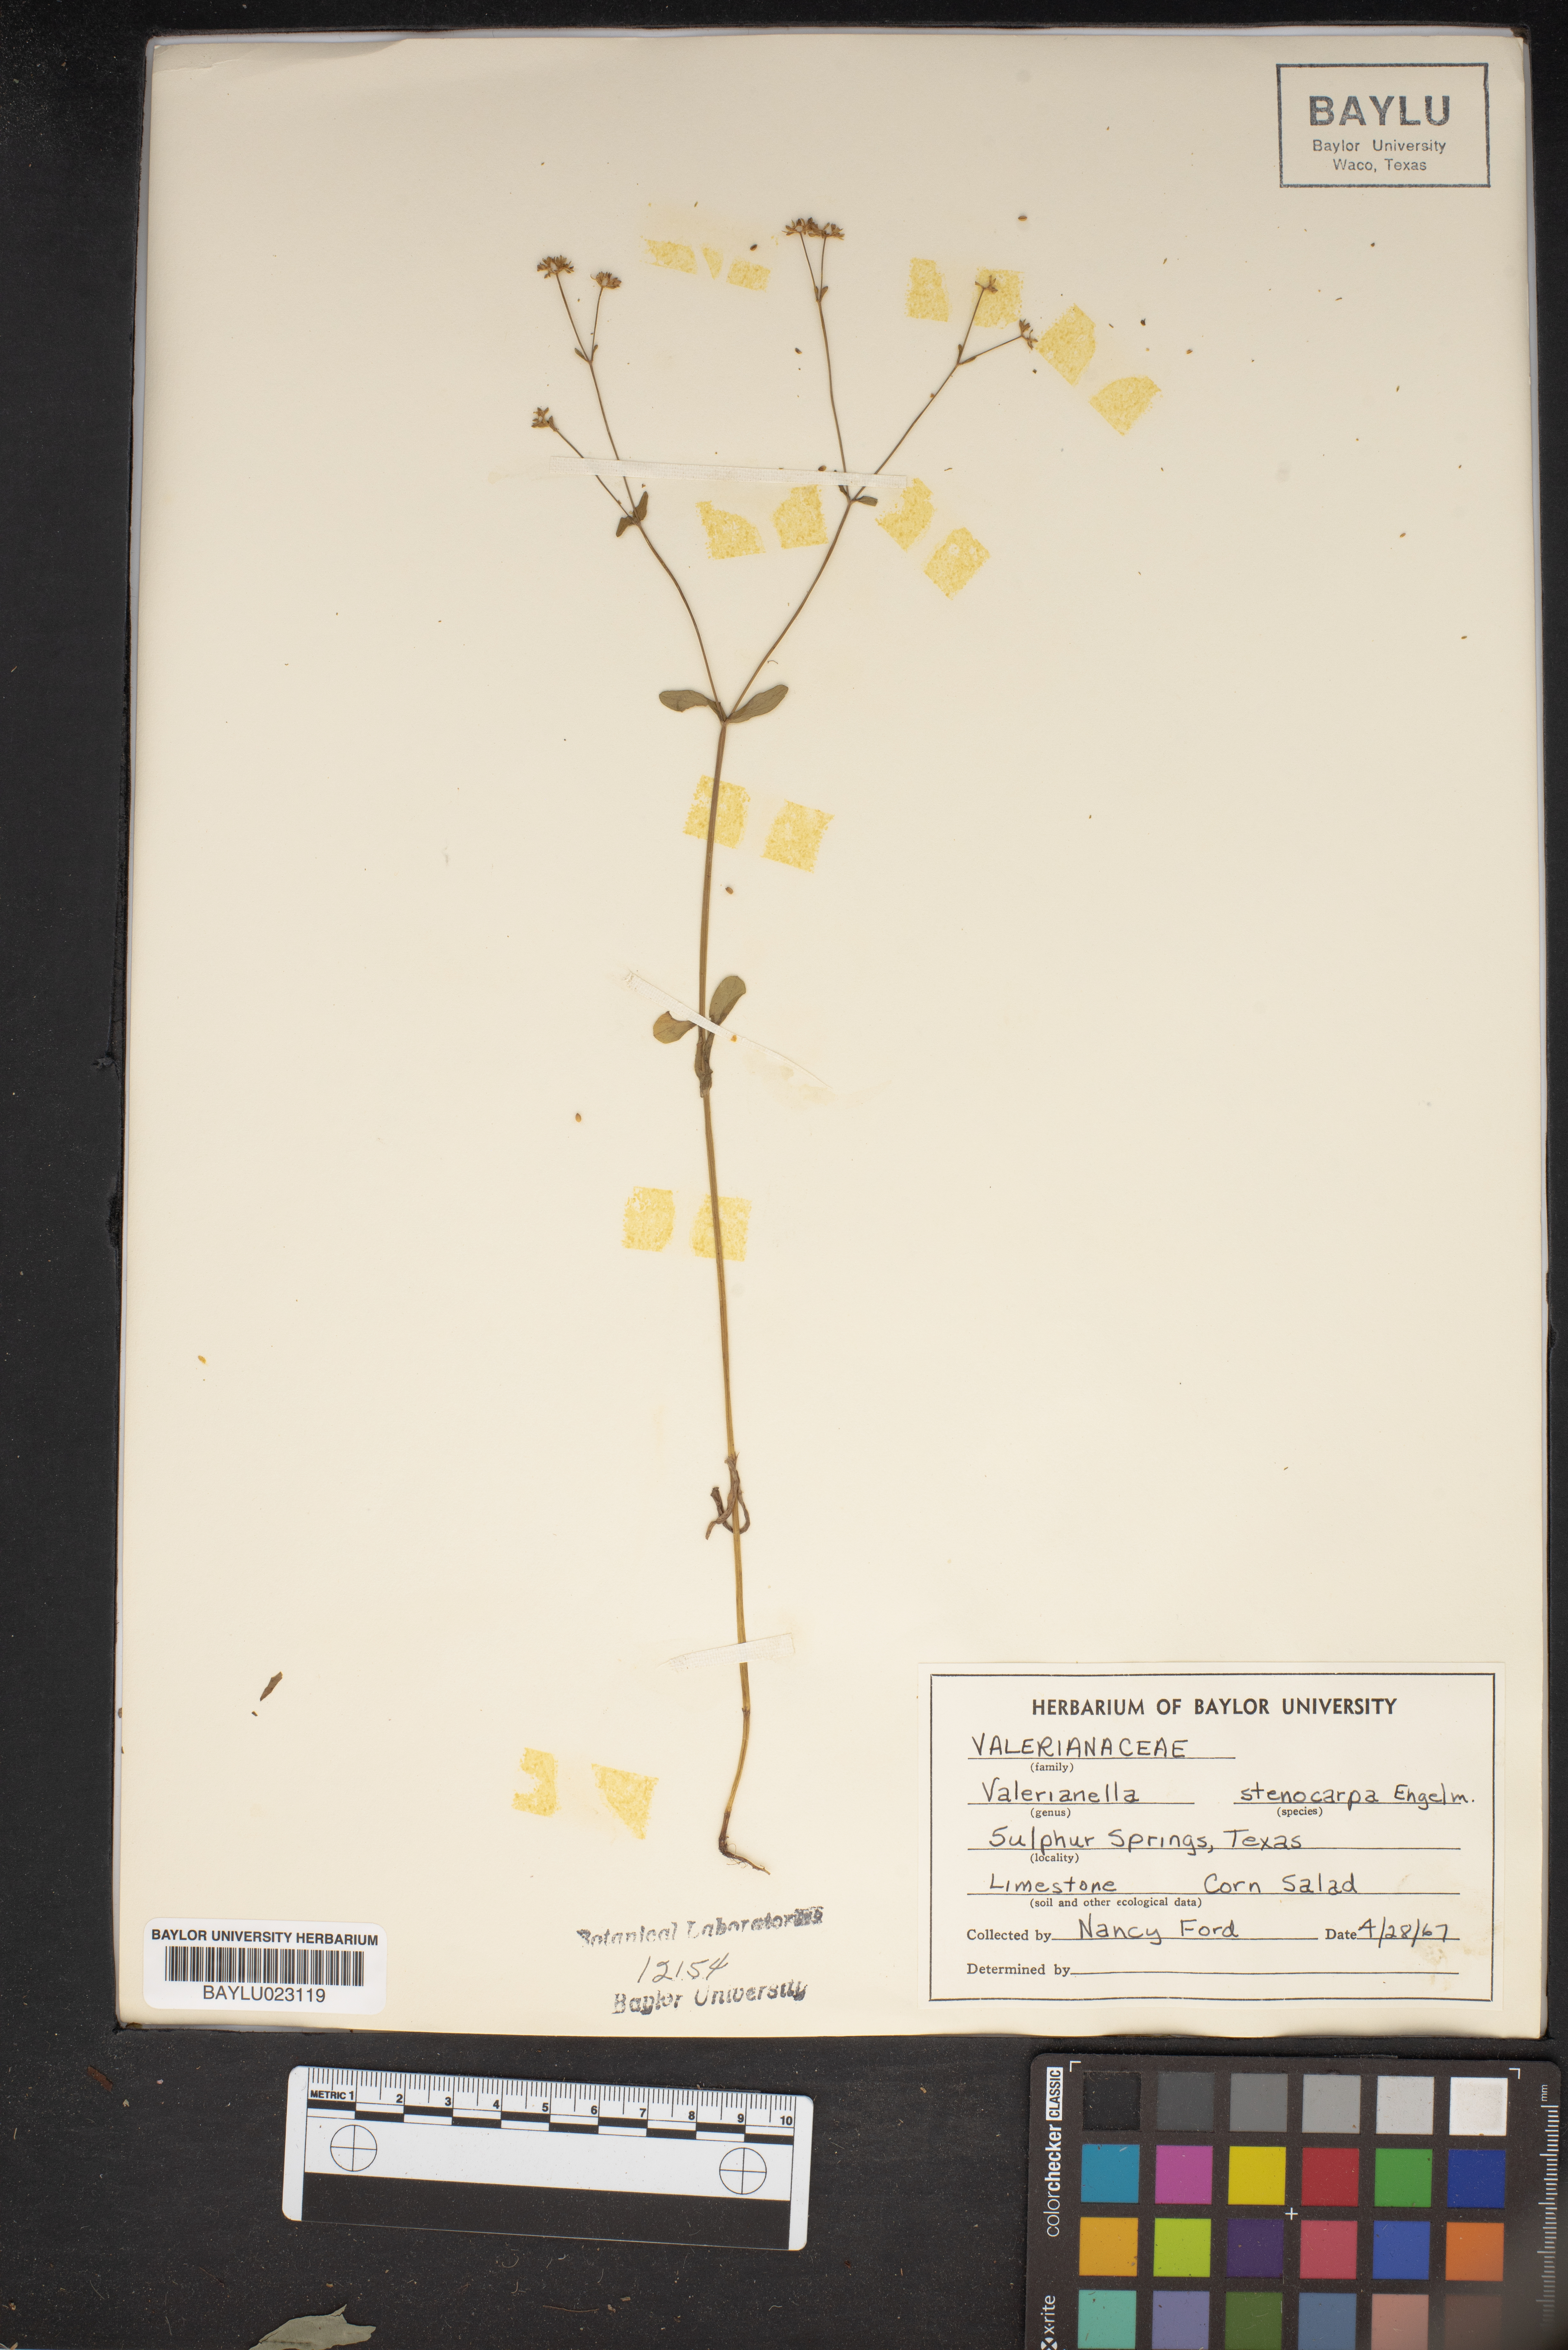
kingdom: Plantae
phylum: Tracheophyta
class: Magnoliopsida
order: Dipsacales
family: Caprifoliaceae
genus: Valerianella
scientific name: Valerianella stenocarpa
